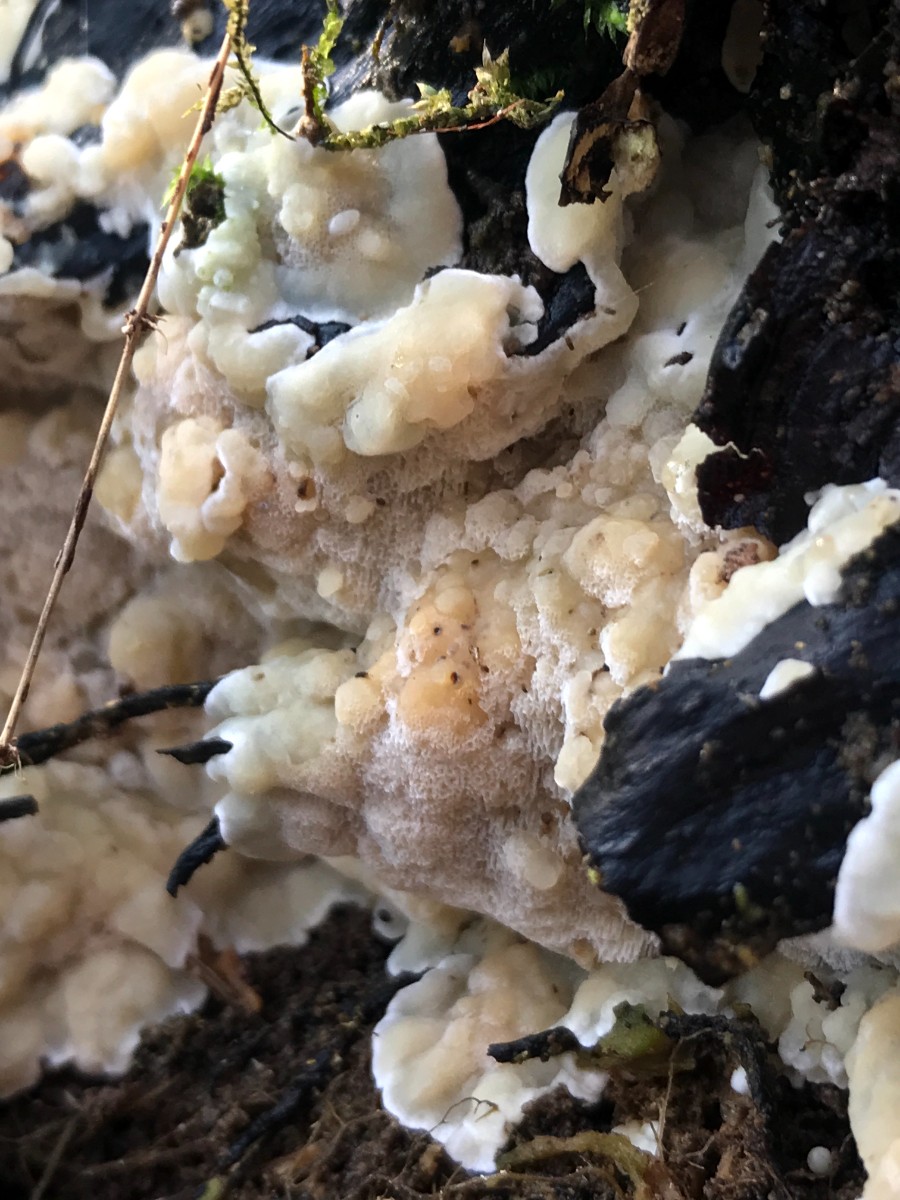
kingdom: Fungi
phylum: Basidiomycota
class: Agaricomycetes
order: Polyporales
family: Meruliaceae
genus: Physisporinus
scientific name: Physisporinus vitreus
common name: mastesvamp
